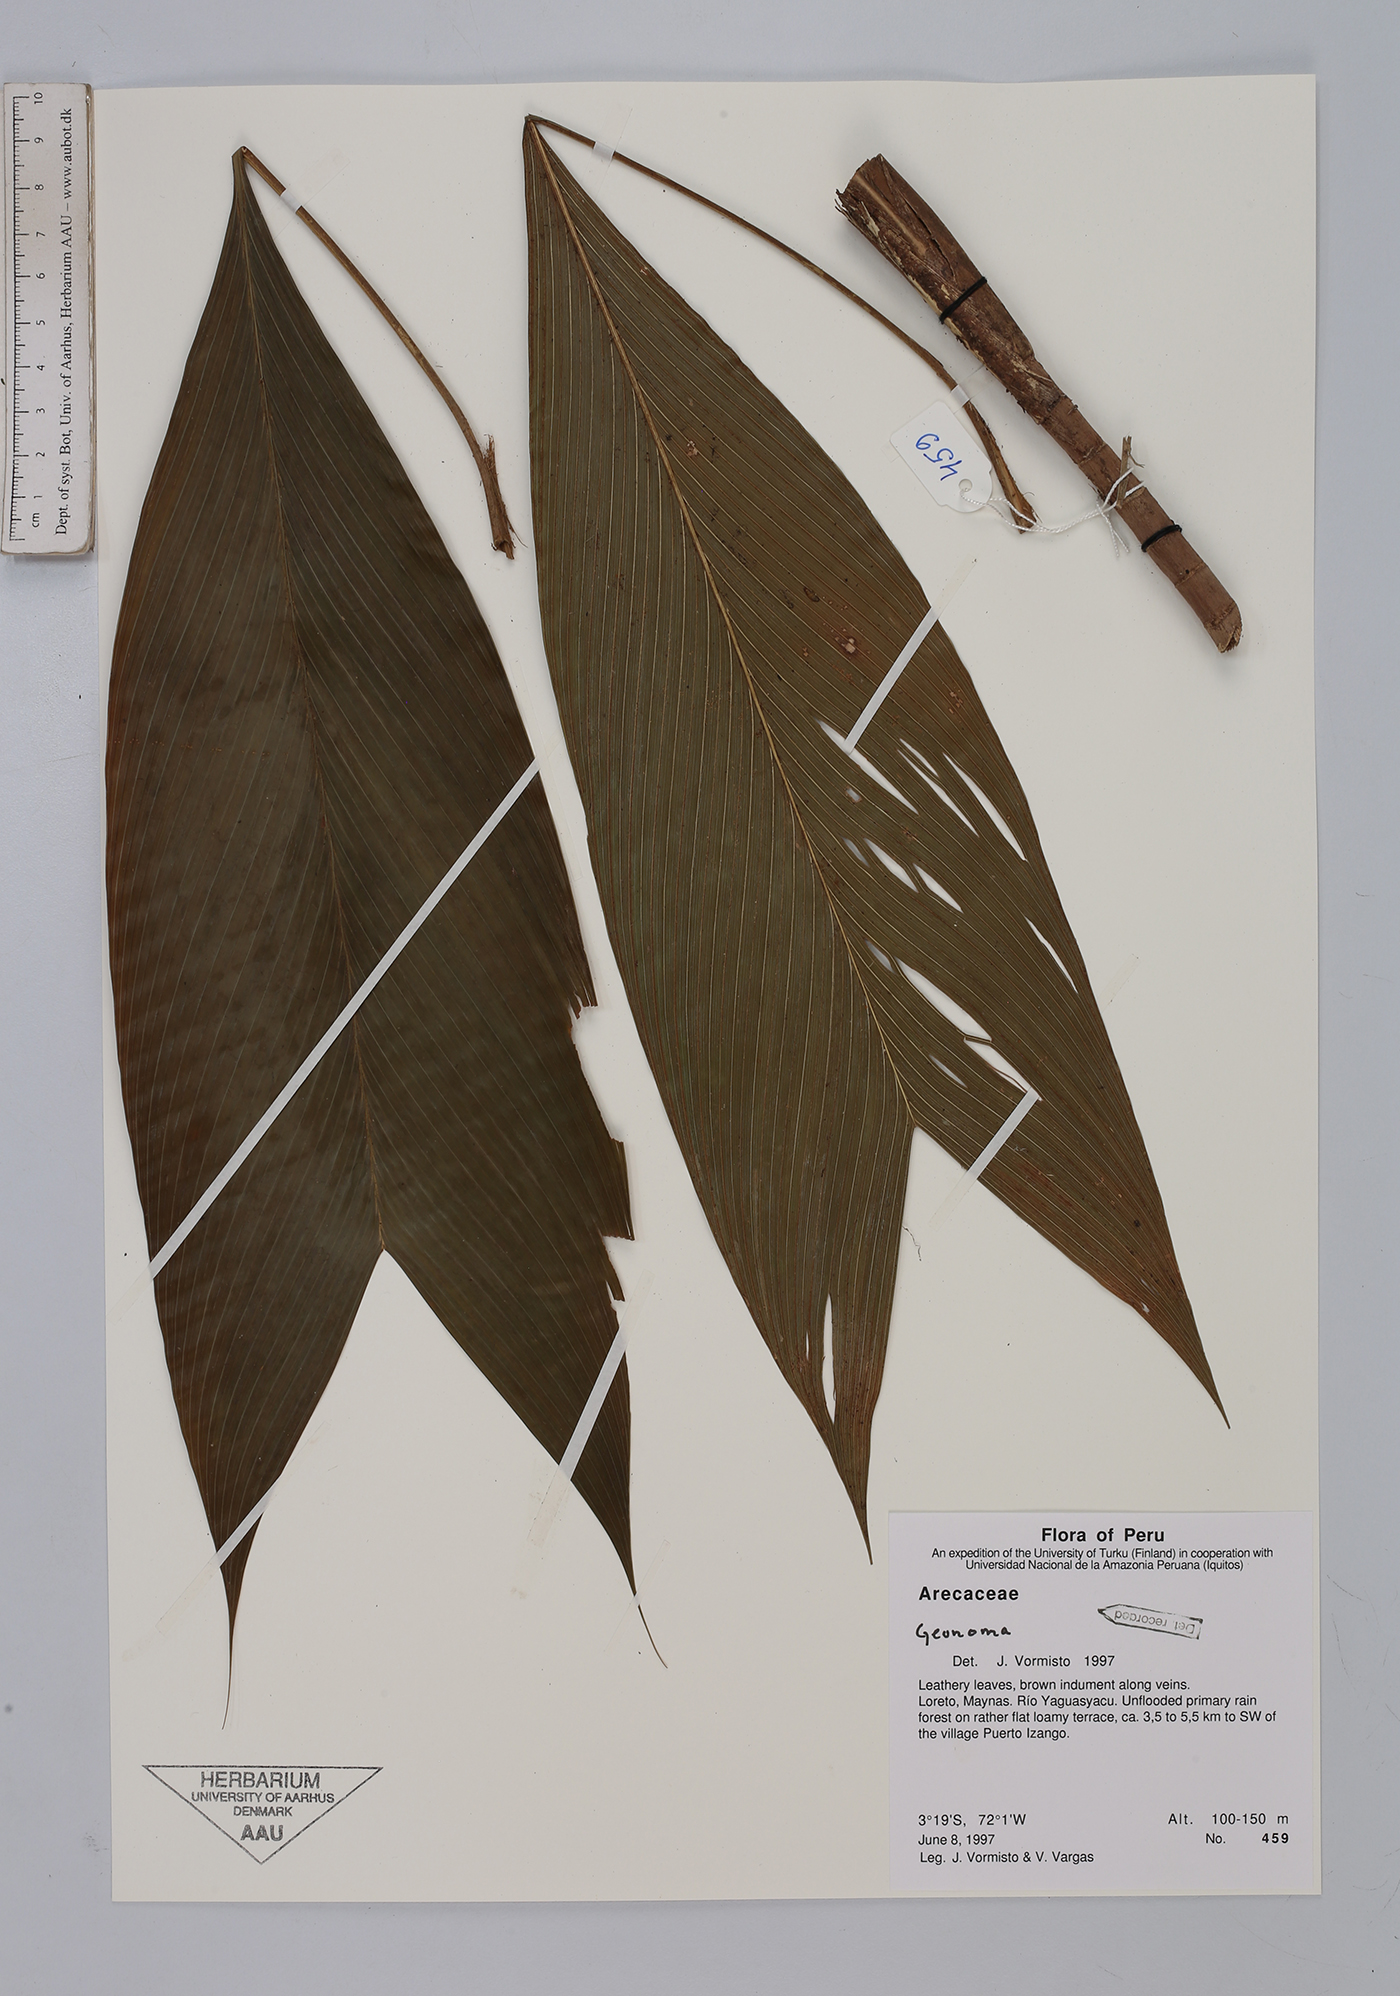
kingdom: Plantae
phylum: Tracheophyta
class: Liliopsida
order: Arecales
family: Arecaceae
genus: Geonoma
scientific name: Geonoma
